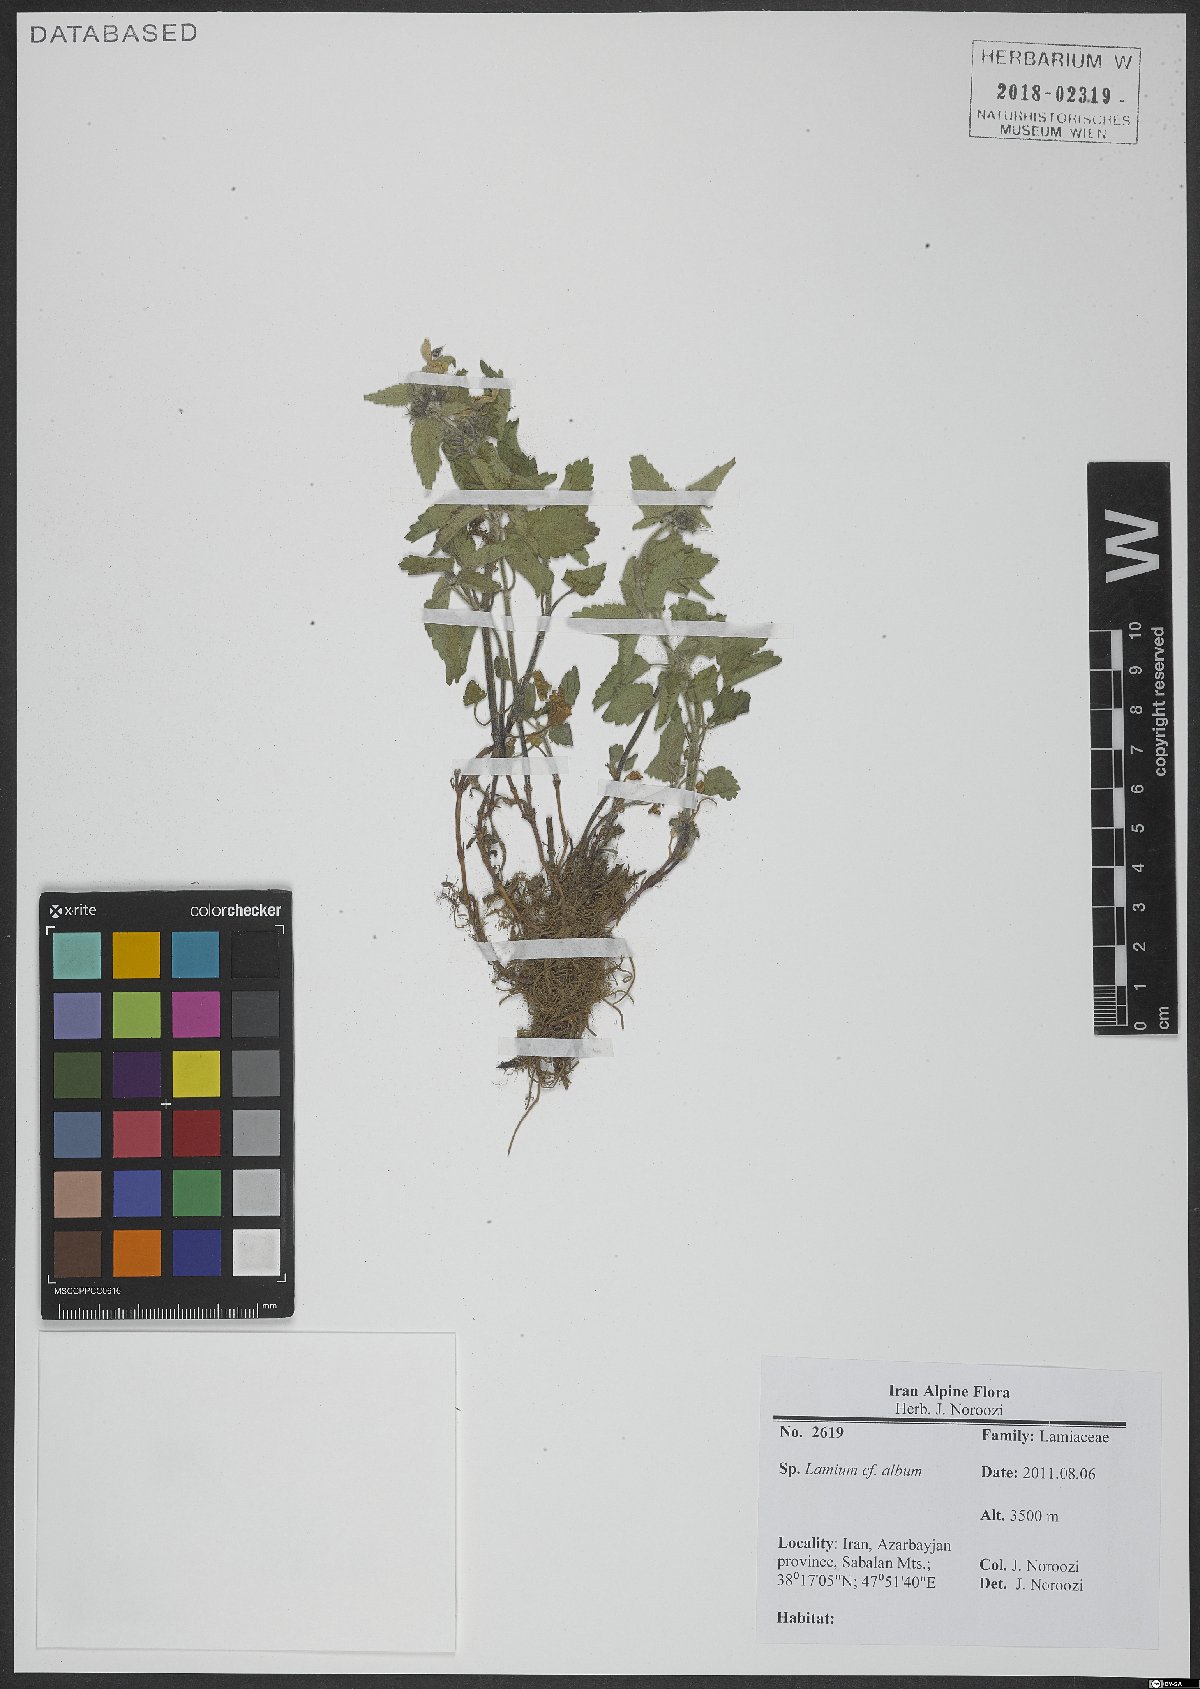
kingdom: Plantae
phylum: Tracheophyta
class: Magnoliopsida
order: Lamiales
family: Lamiaceae
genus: Lamium
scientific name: Lamium album
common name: White dead-nettle
